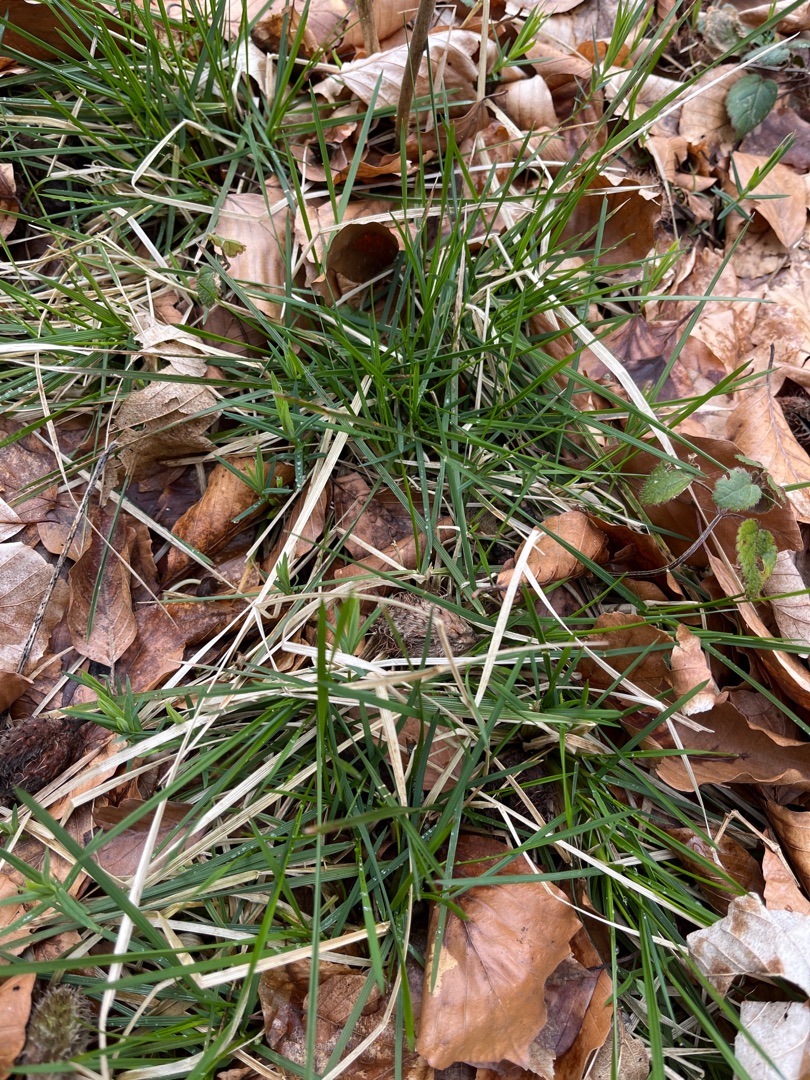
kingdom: Plantae
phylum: Tracheophyta
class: Liliopsida
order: Poales
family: Poaceae
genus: Deschampsia
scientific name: Deschampsia cespitosa
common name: Mose-bunke
